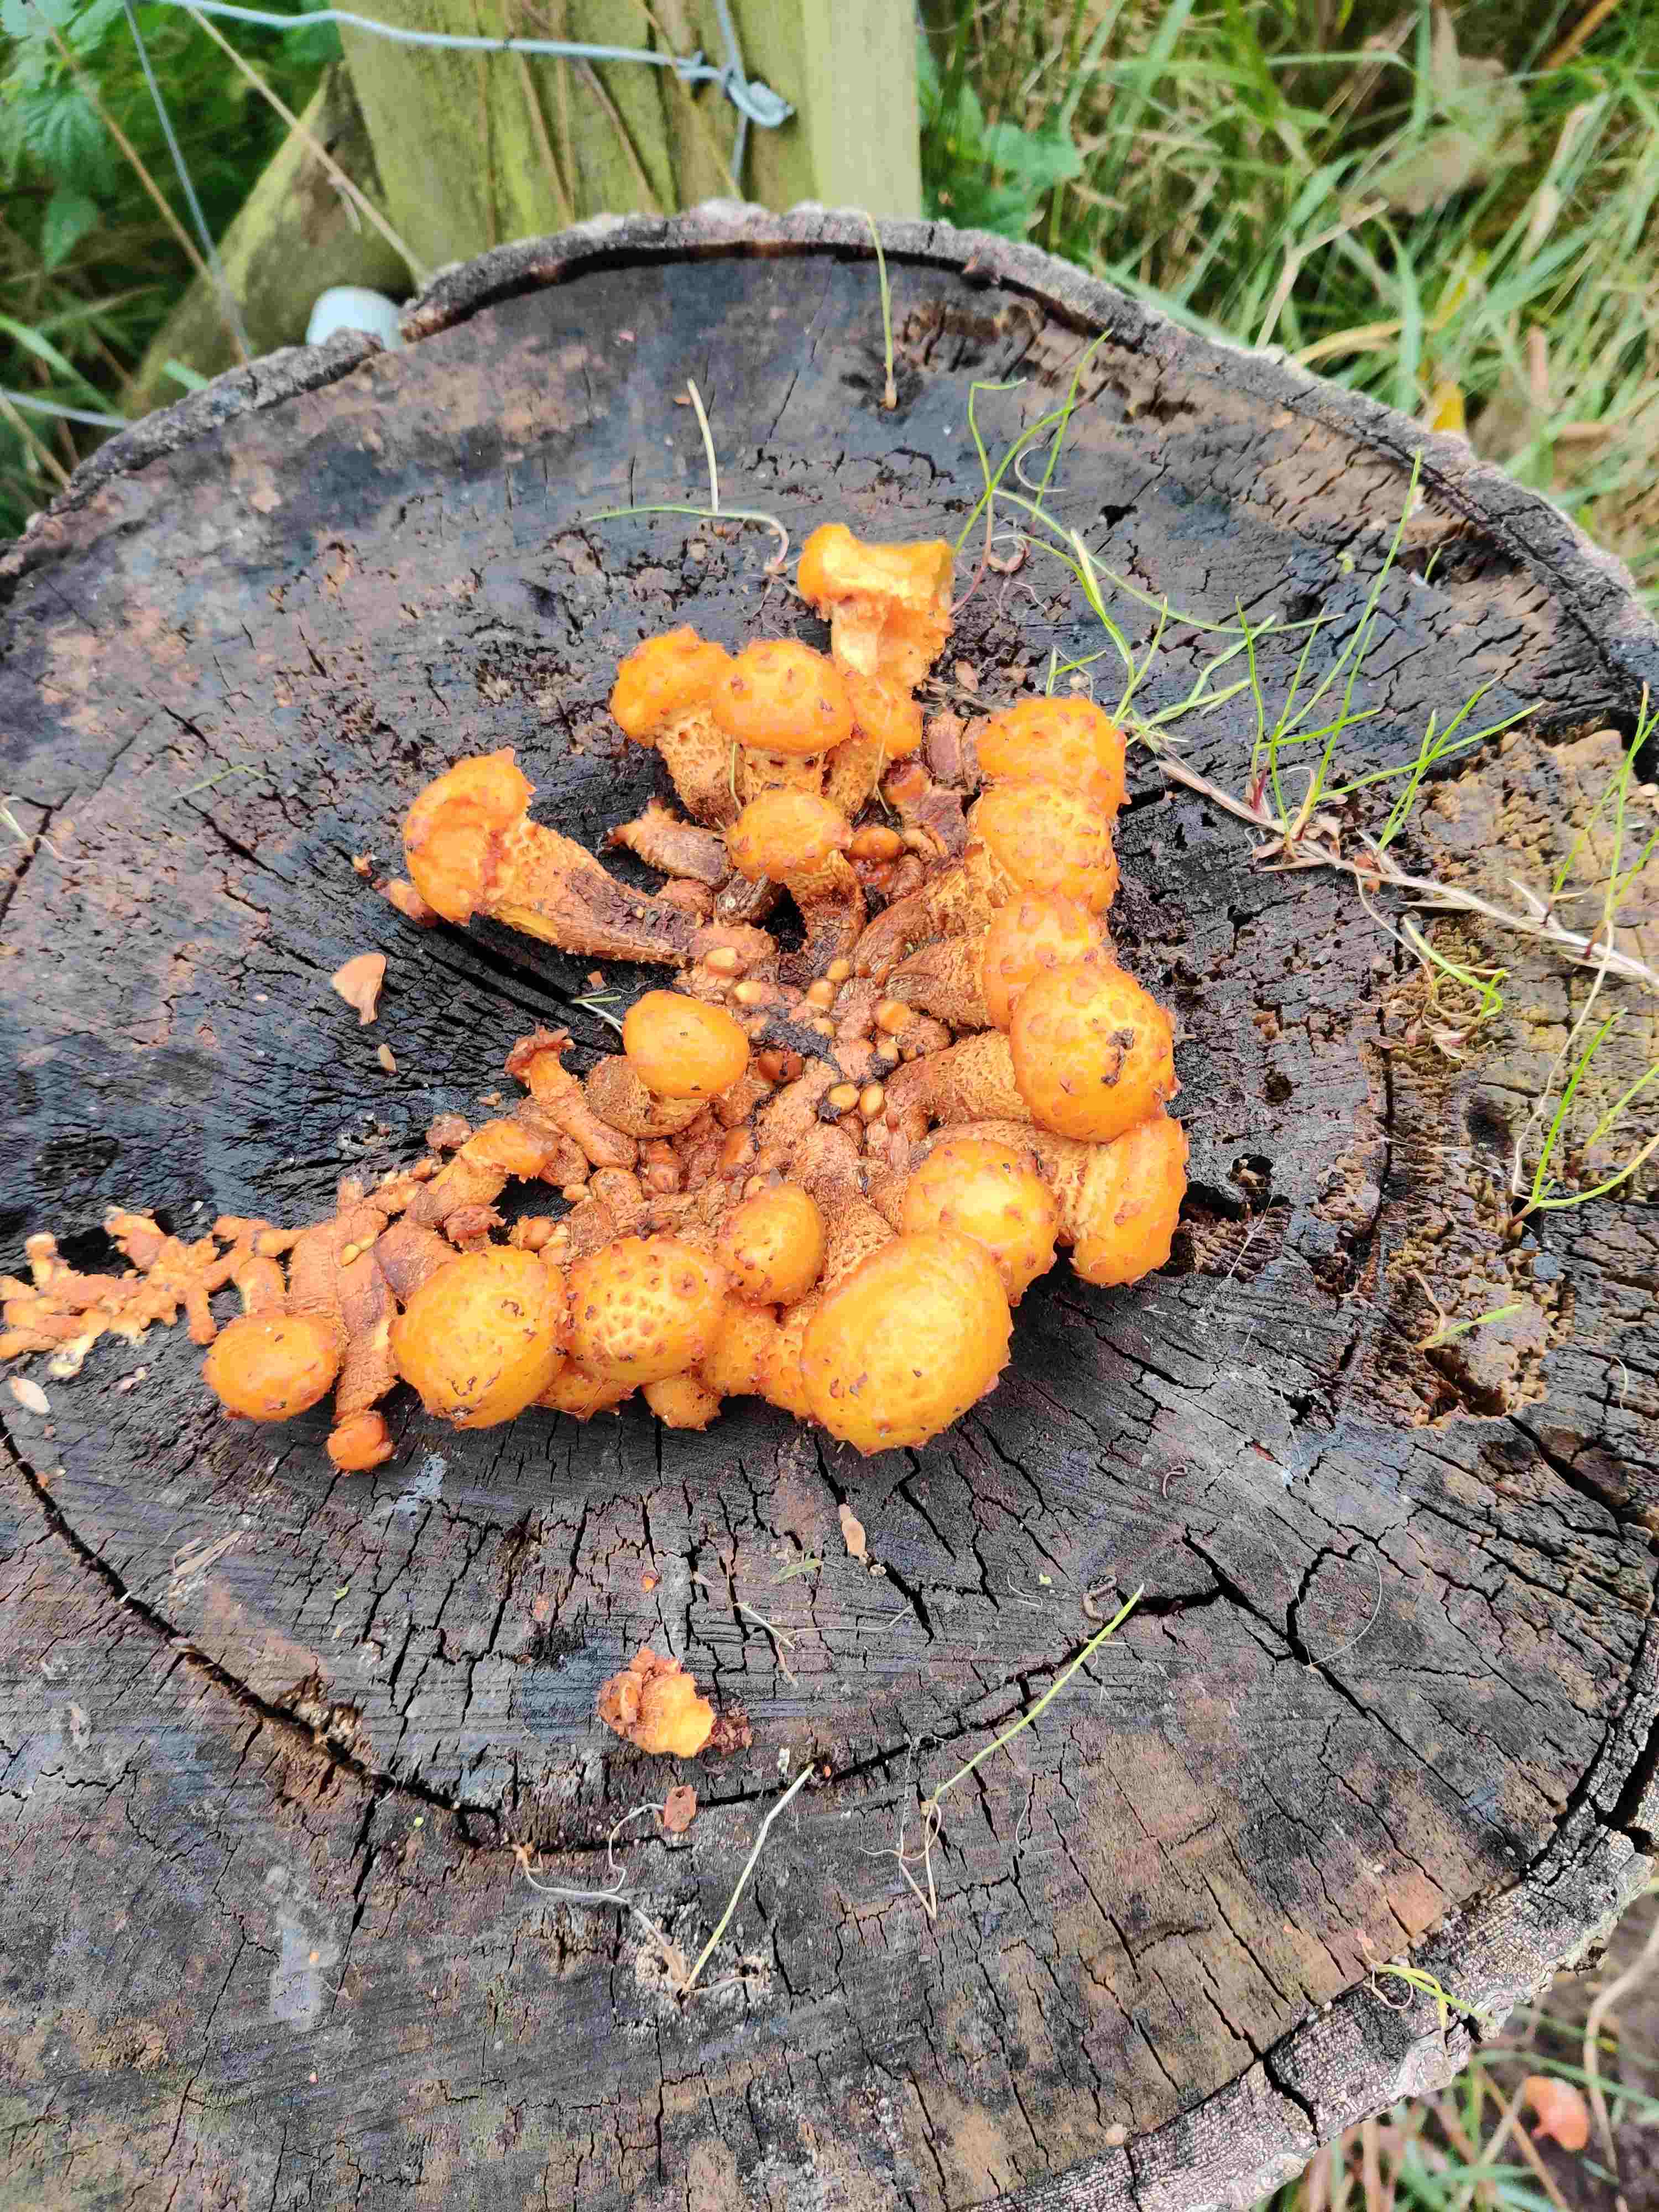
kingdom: Fungi
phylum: Basidiomycota
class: Agaricomycetes
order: Agaricales
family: Strophariaceae
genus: Pholiota
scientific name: Pholiota flammans
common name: flamme-skælhat
